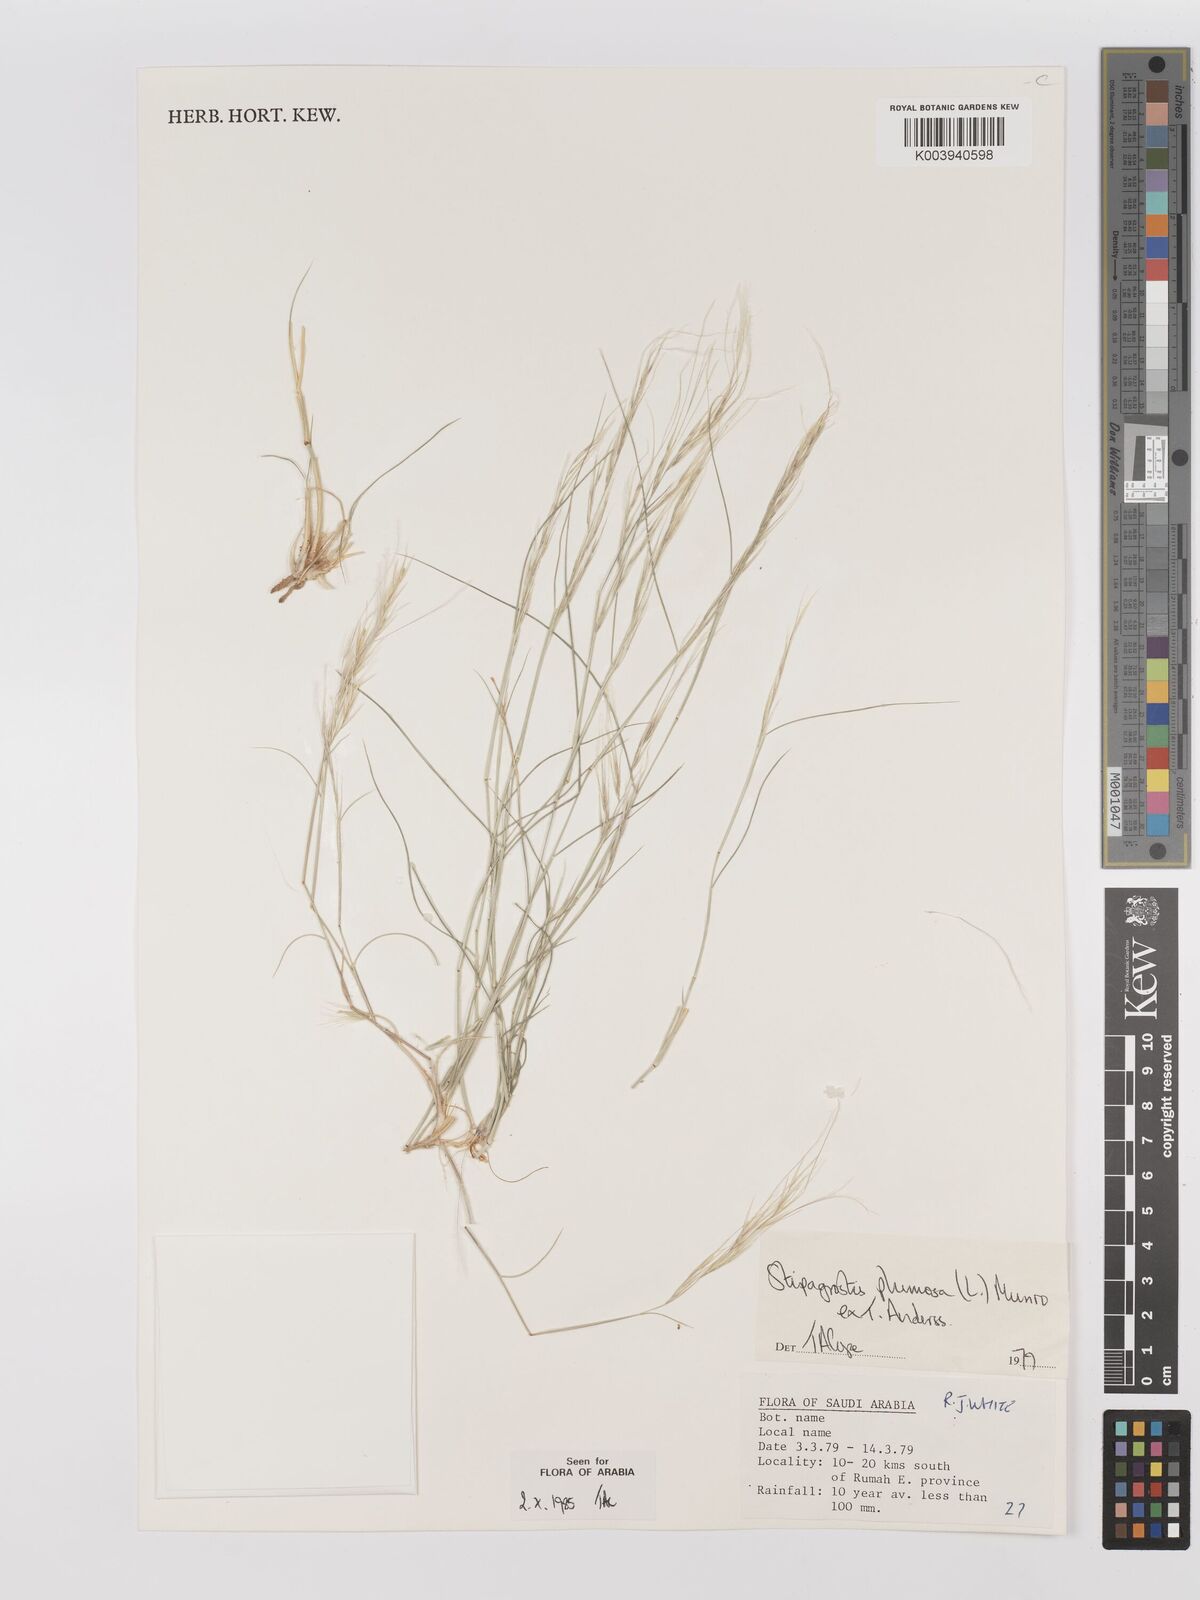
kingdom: Plantae
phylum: Tracheophyta
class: Liliopsida
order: Poales
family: Poaceae
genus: Stipagrostis
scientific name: Stipagrostis plumosa
